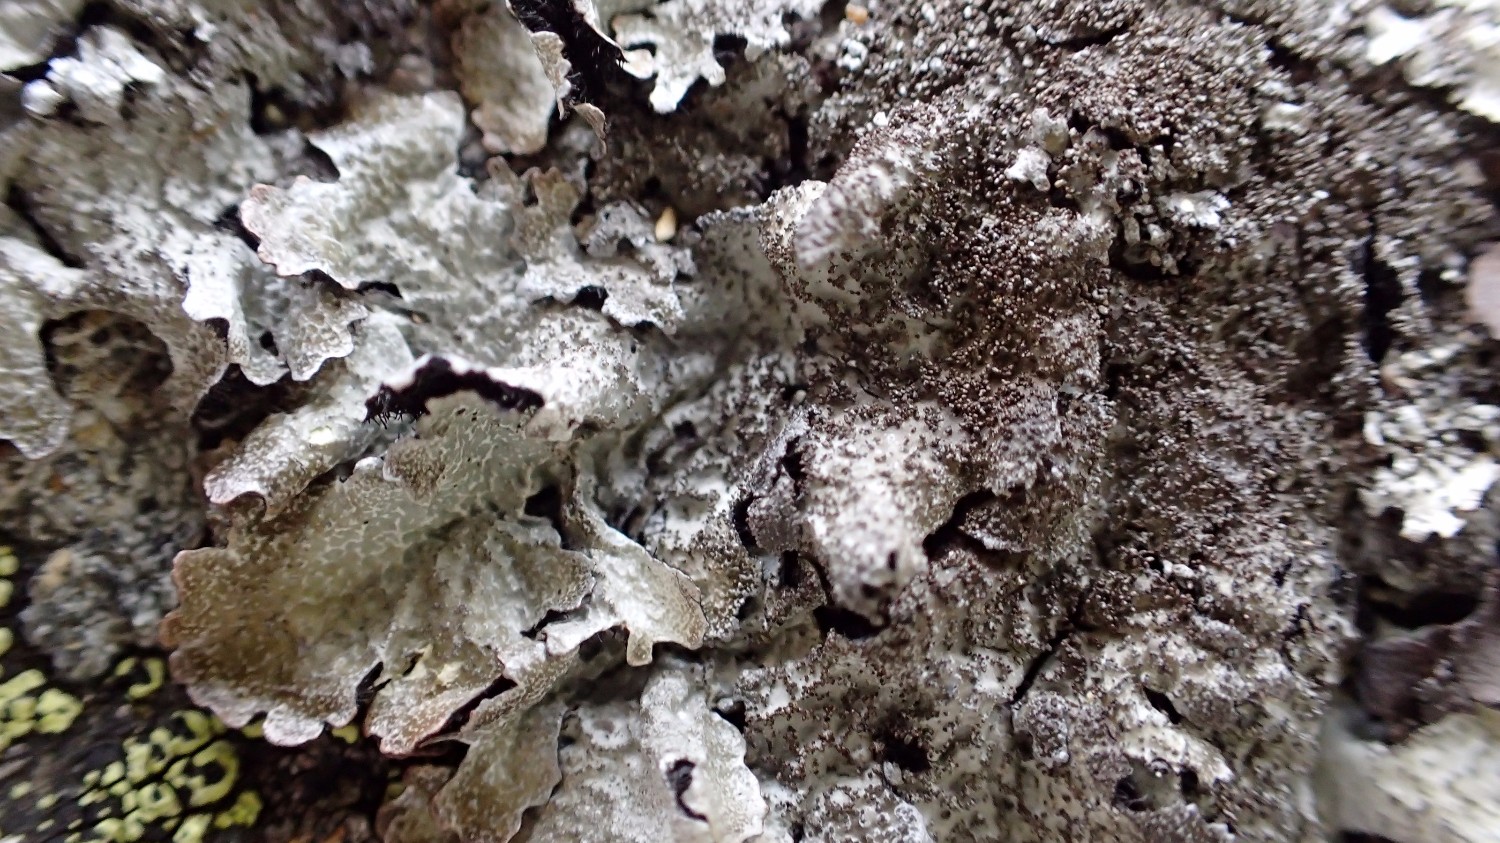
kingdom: Fungi
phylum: Ascomycota
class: Lecanoromycetes
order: Lecanorales
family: Parmeliaceae
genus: Parmelia
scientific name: Parmelia saxatilis
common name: farve-skållav
